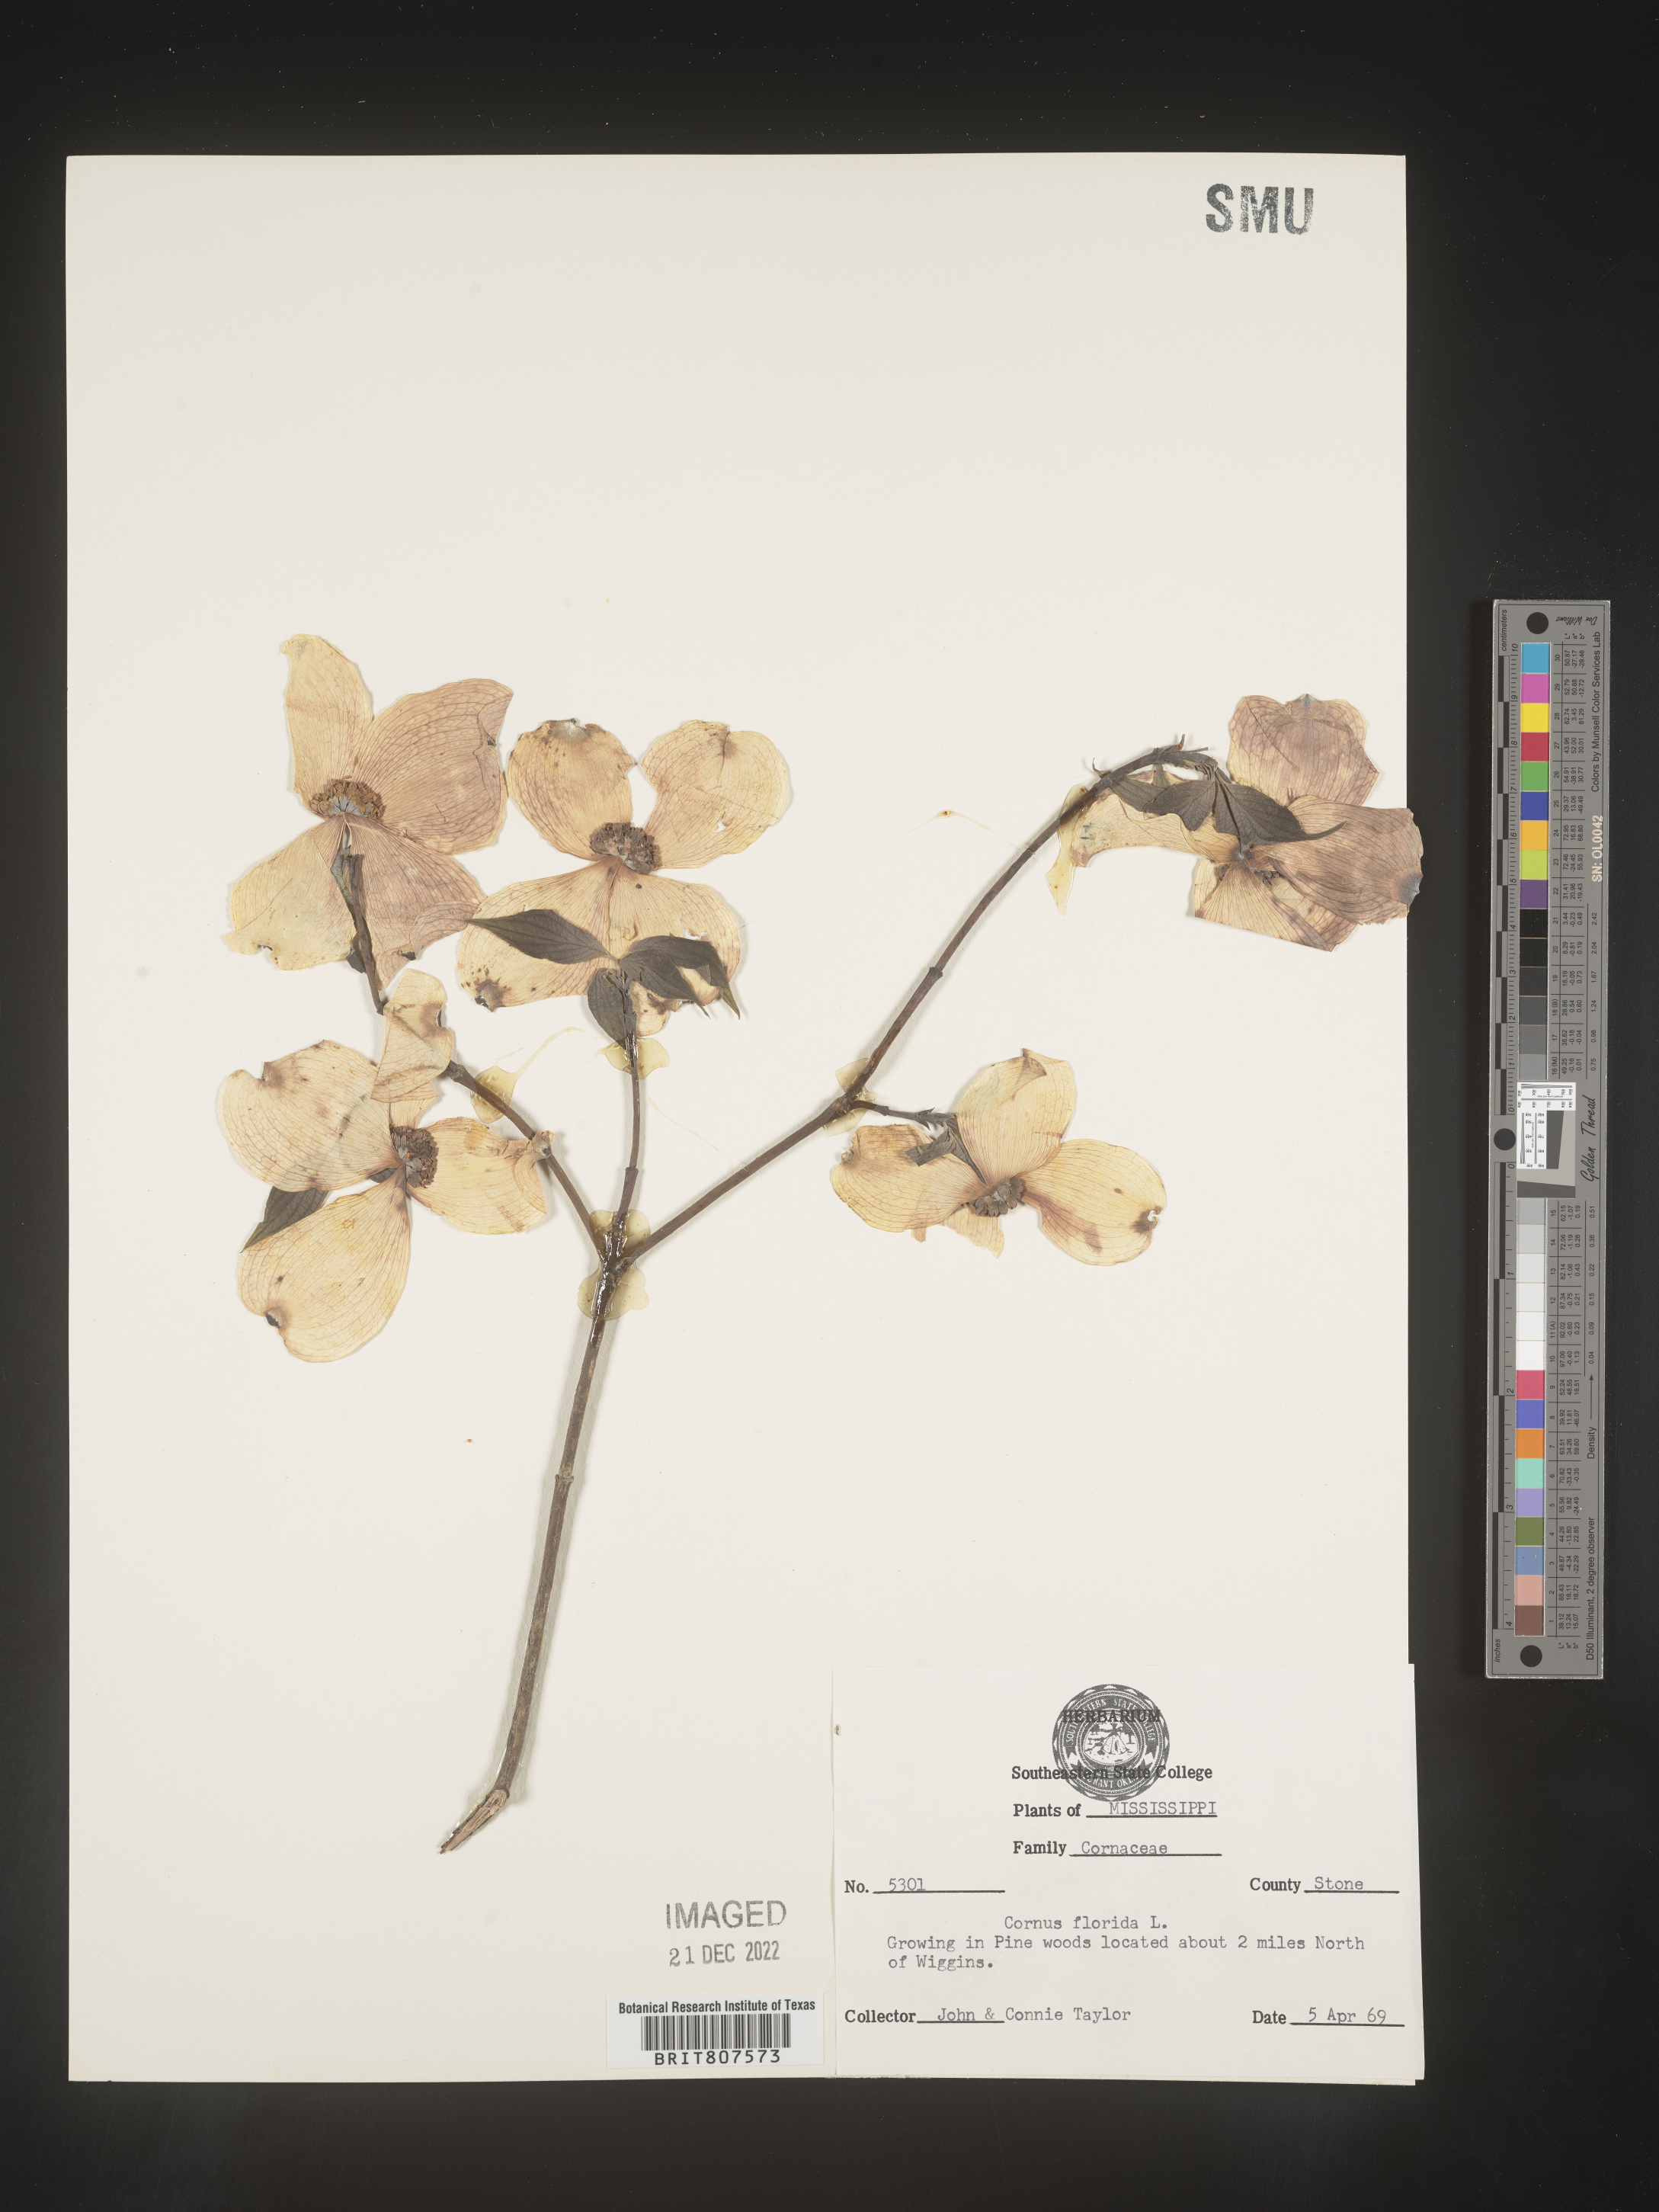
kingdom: Plantae
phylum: Tracheophyta
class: Magnoliopsida
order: Cornales
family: Cornaceae
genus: Cornus
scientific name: Cornus florida
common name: Flowering dogwood
